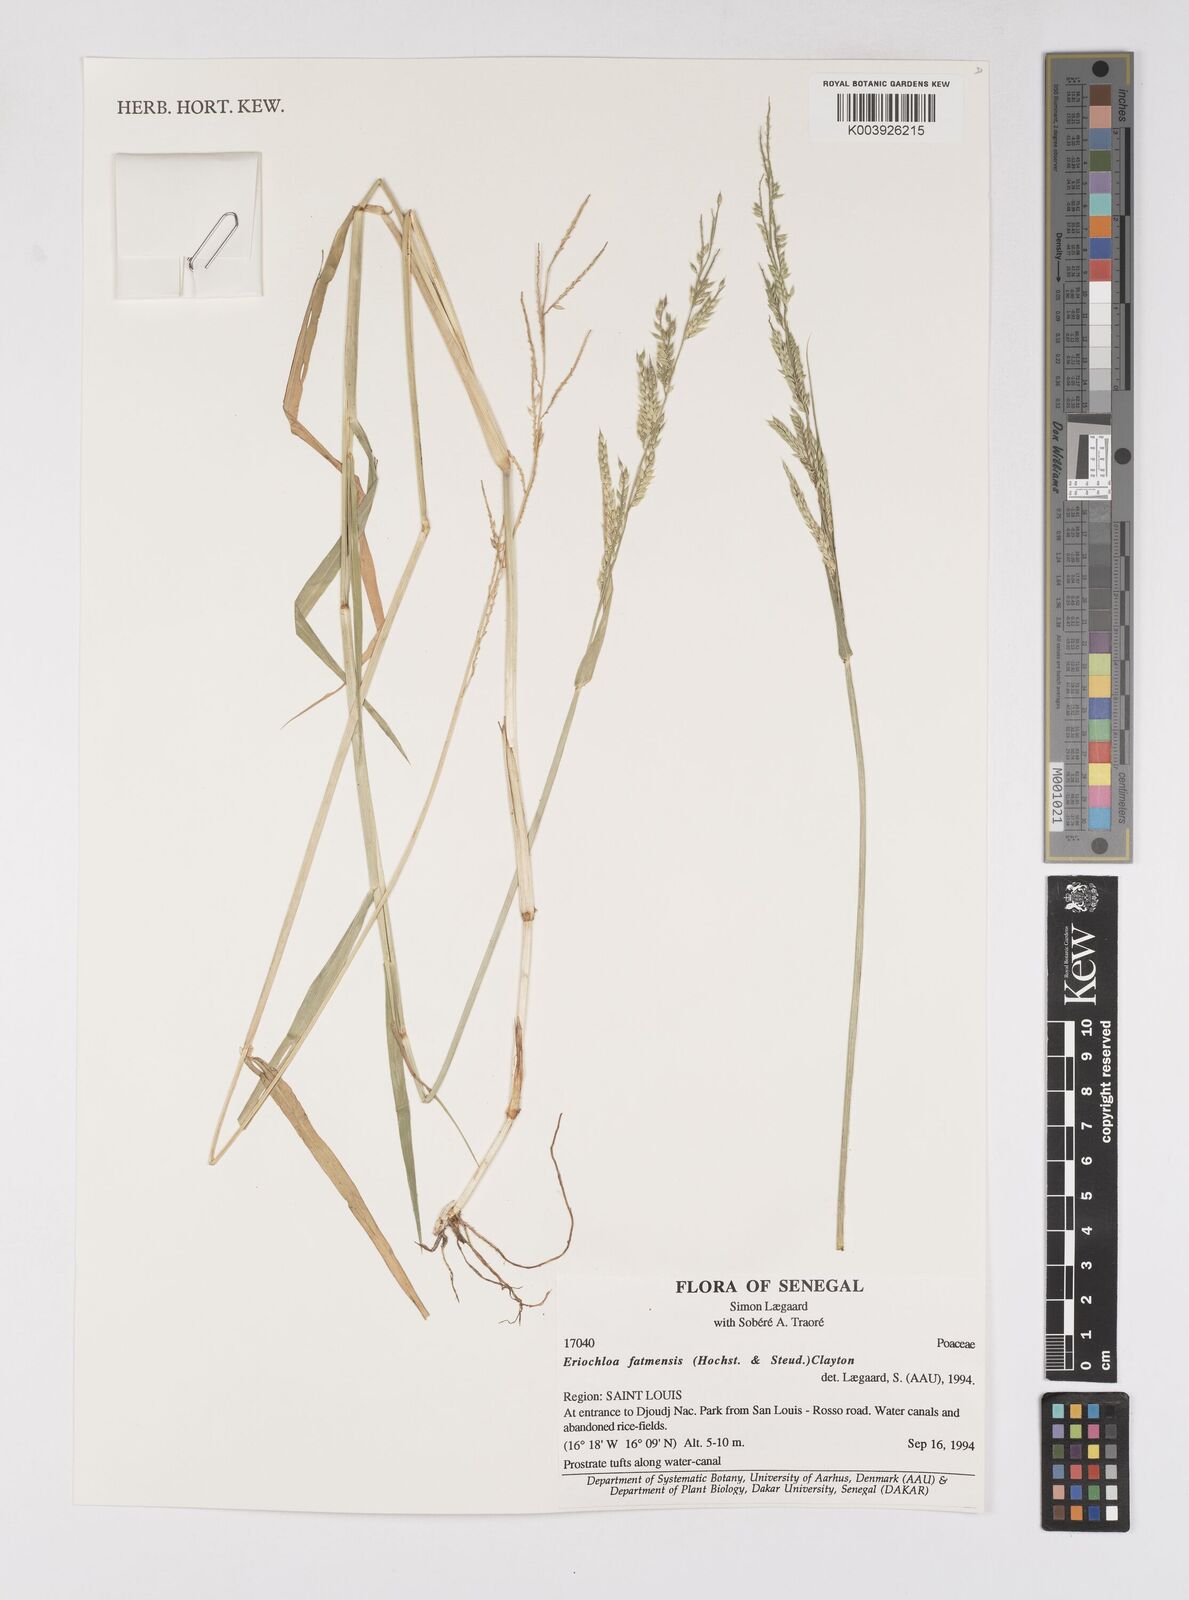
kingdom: Plantae
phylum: Tracheophyta
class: Liliopsida
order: Poales
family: Poaceae
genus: Eriochloa
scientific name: Eriochloa barbatus
